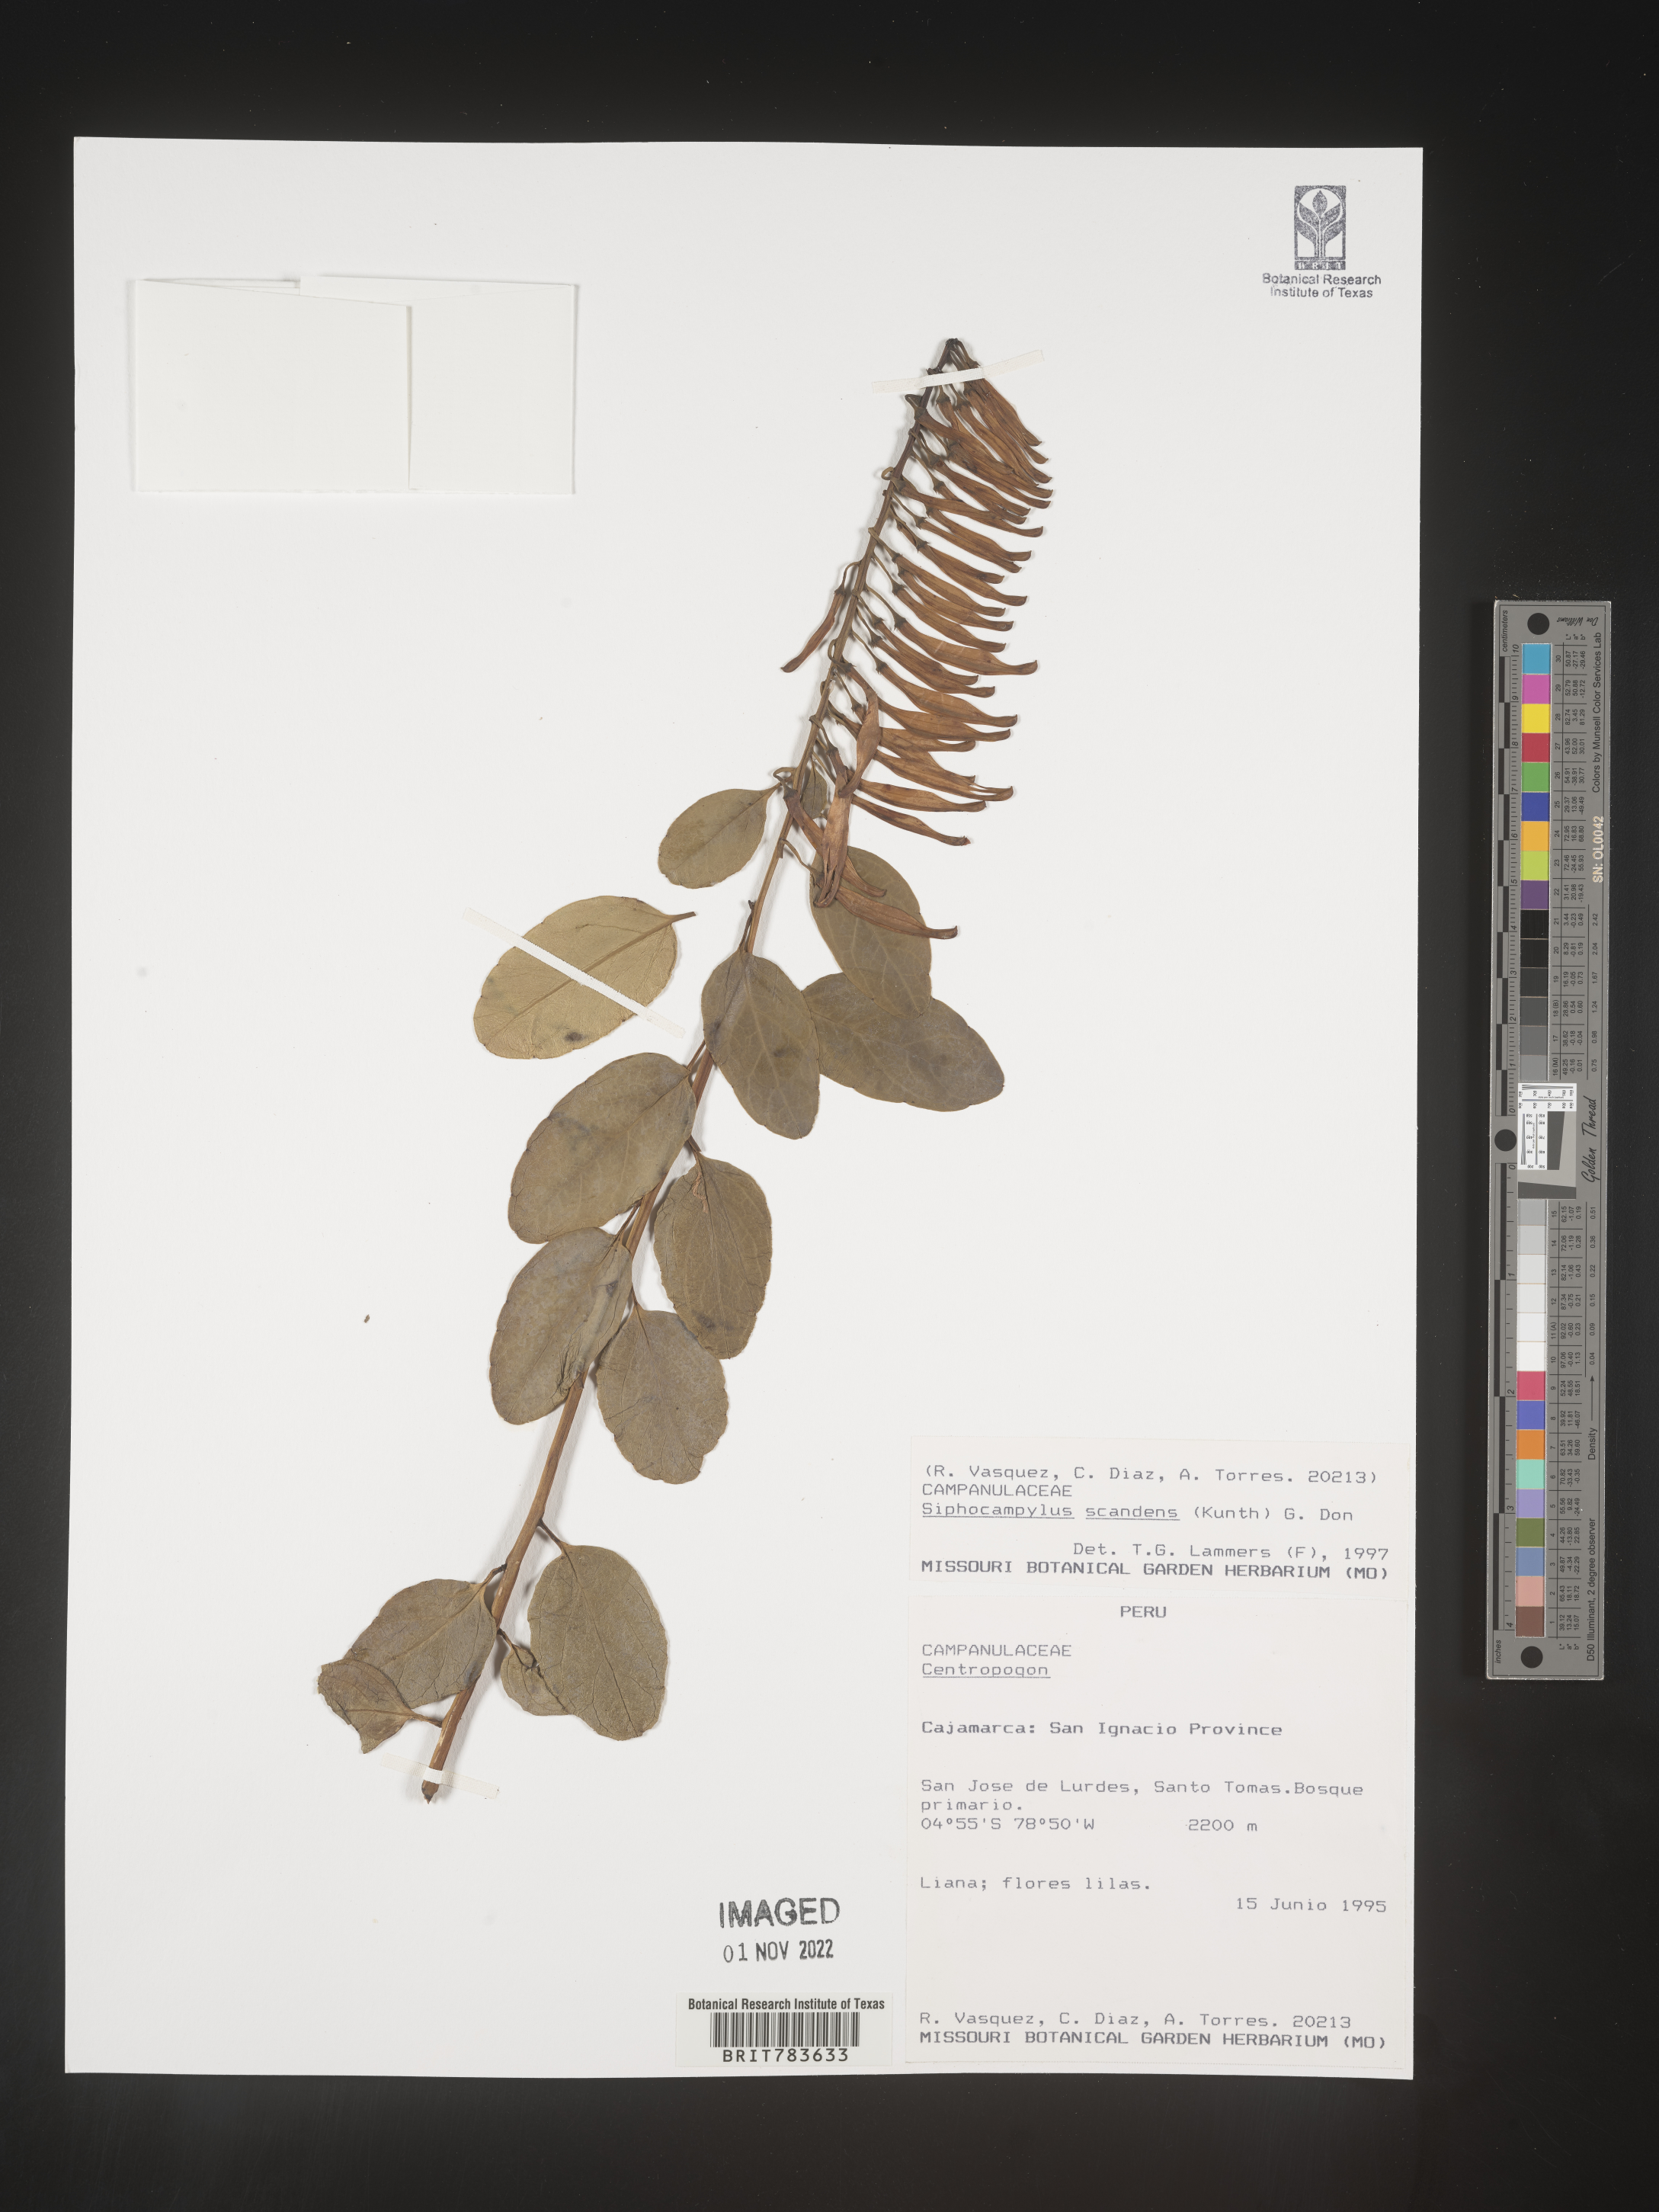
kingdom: Plantae
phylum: Tracheophyta
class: Magnoliopsida
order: Asterales
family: Campanulaceae
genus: Siphocampylus
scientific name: Siphocampylus
